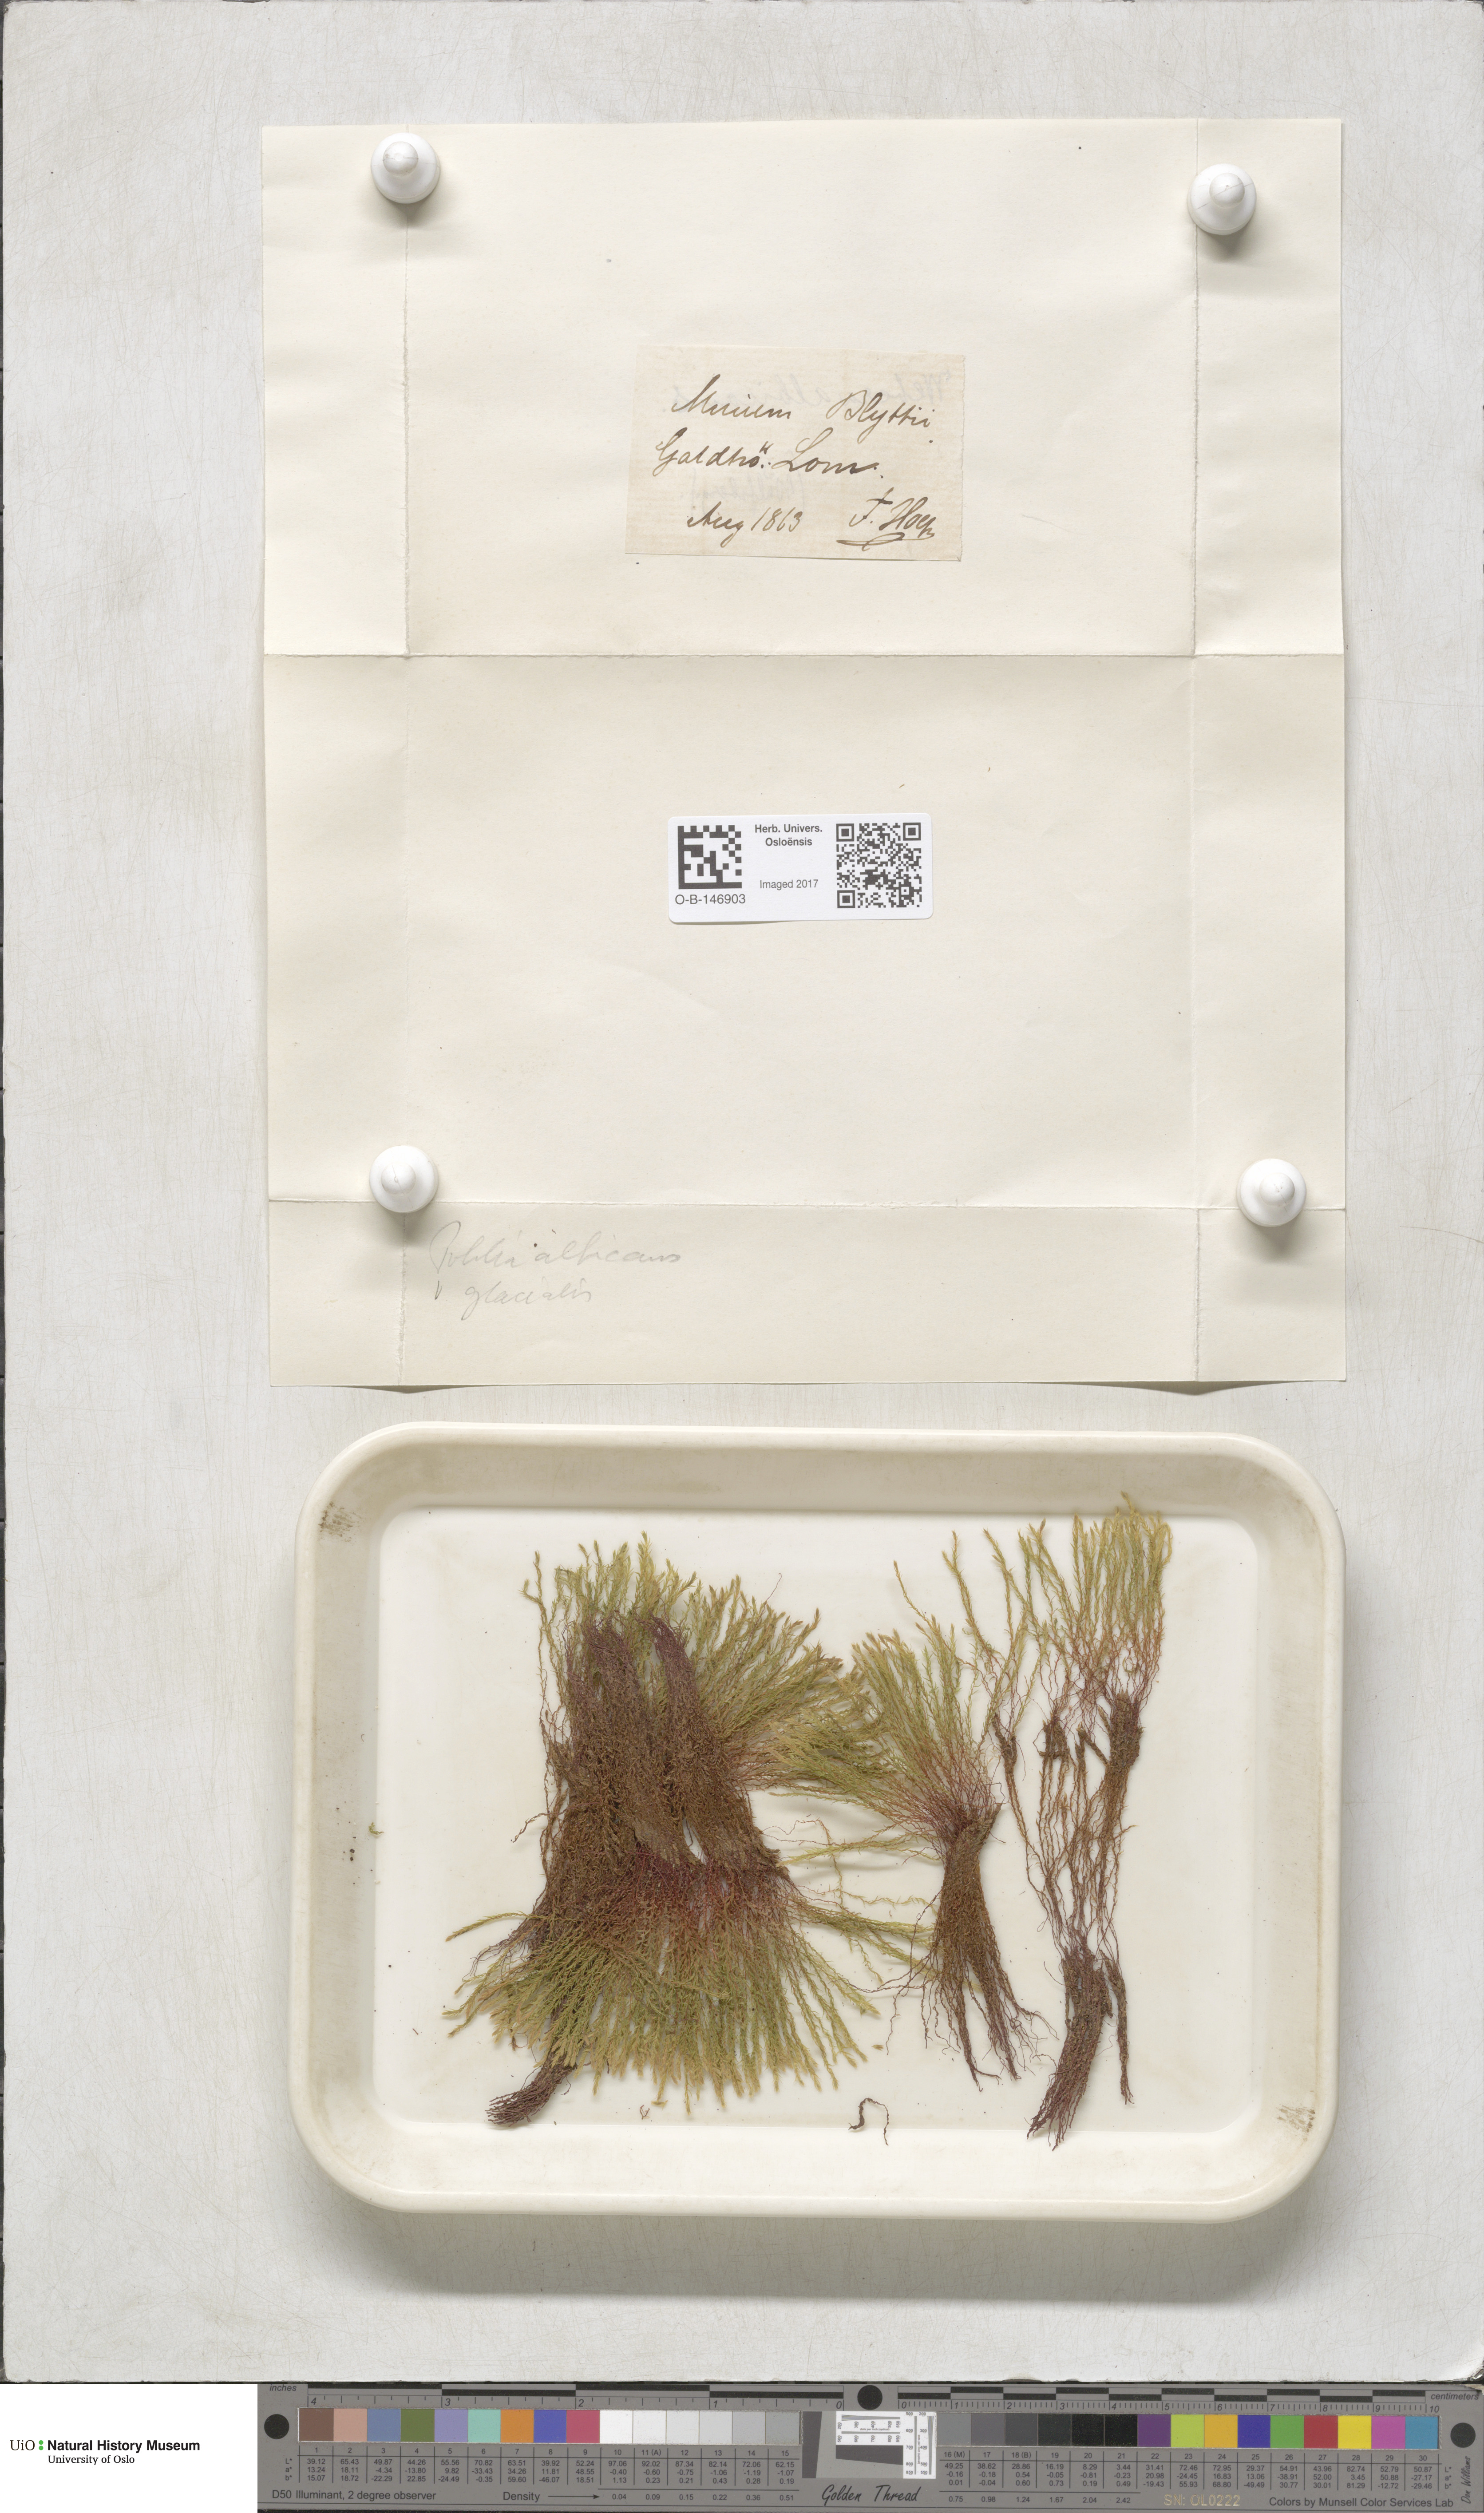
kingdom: Plantae
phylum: Bryophyta
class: Bryopsida
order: Bryales
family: Mniaceae
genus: Pohlia
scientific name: Pohlia wahlenbergii
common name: Wahlenberg's nodding moss
